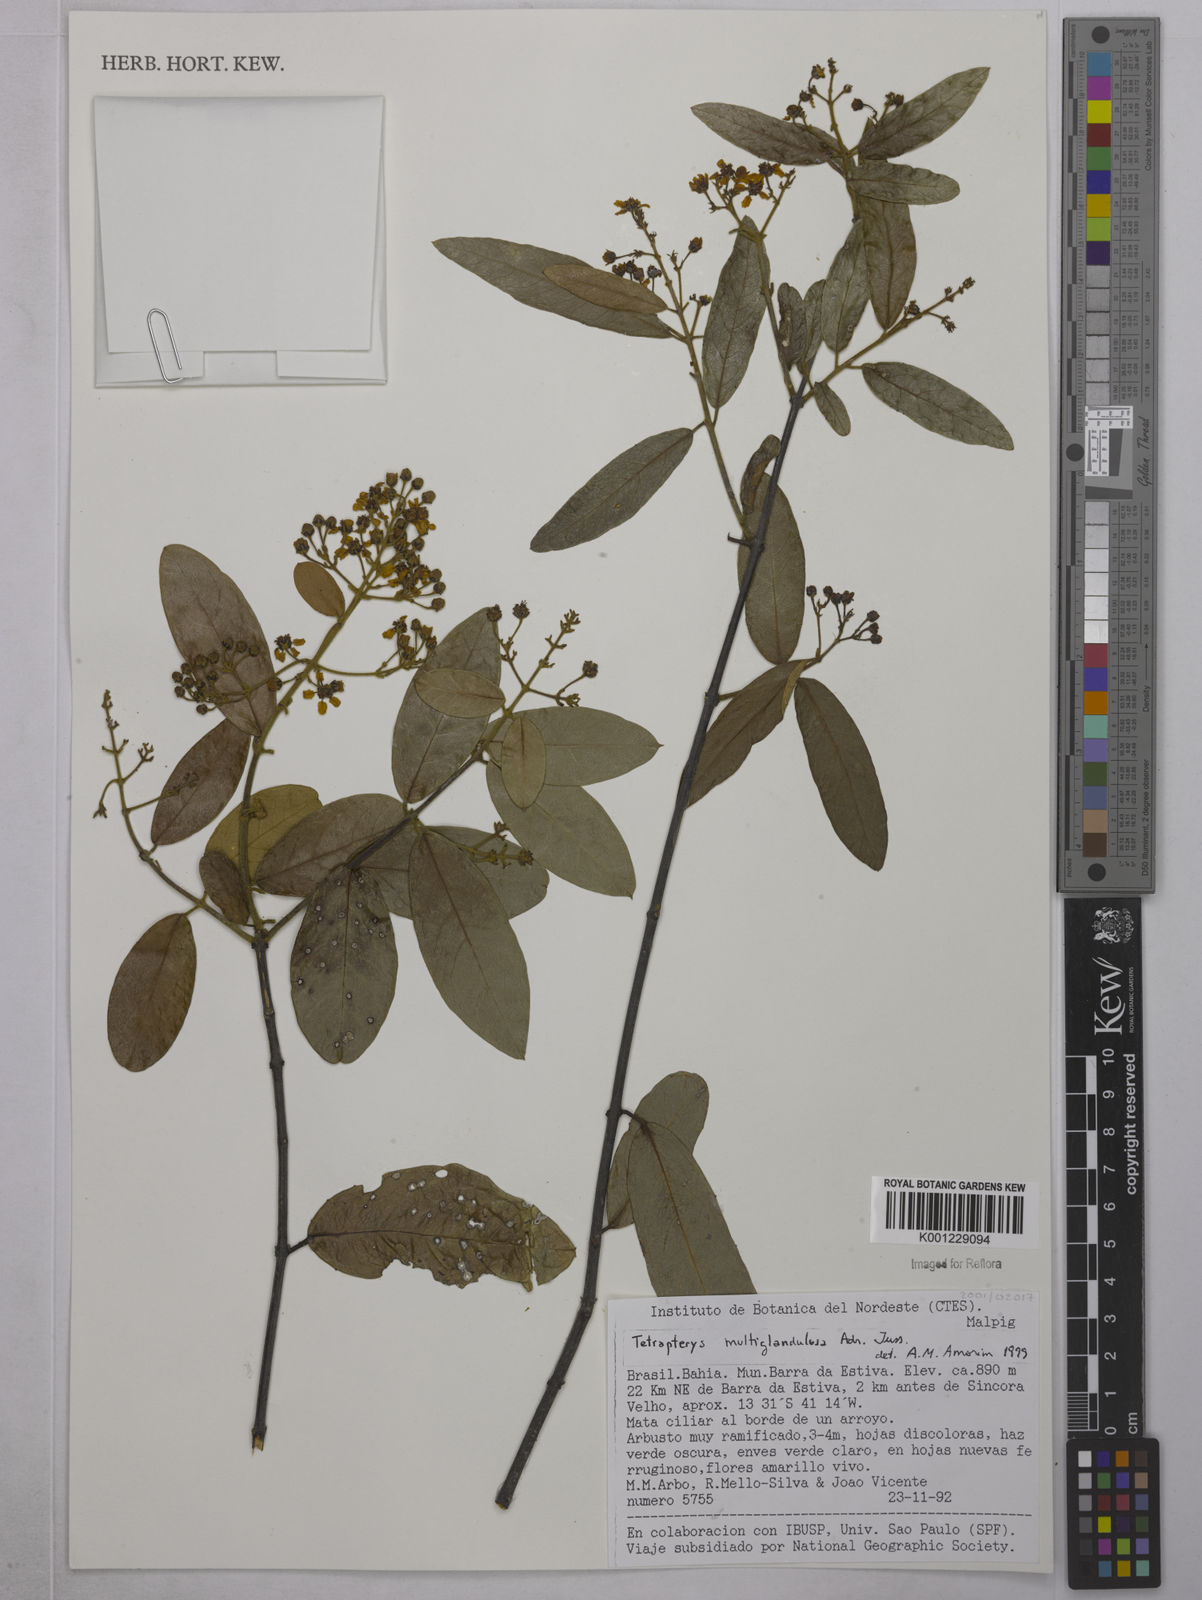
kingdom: Plantae
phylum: Tracheophyta
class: Magnoliopsida
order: Malpighiales
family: Malpighiaceae
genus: Niedenzuella
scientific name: Niedenzuella multiglandulosa
